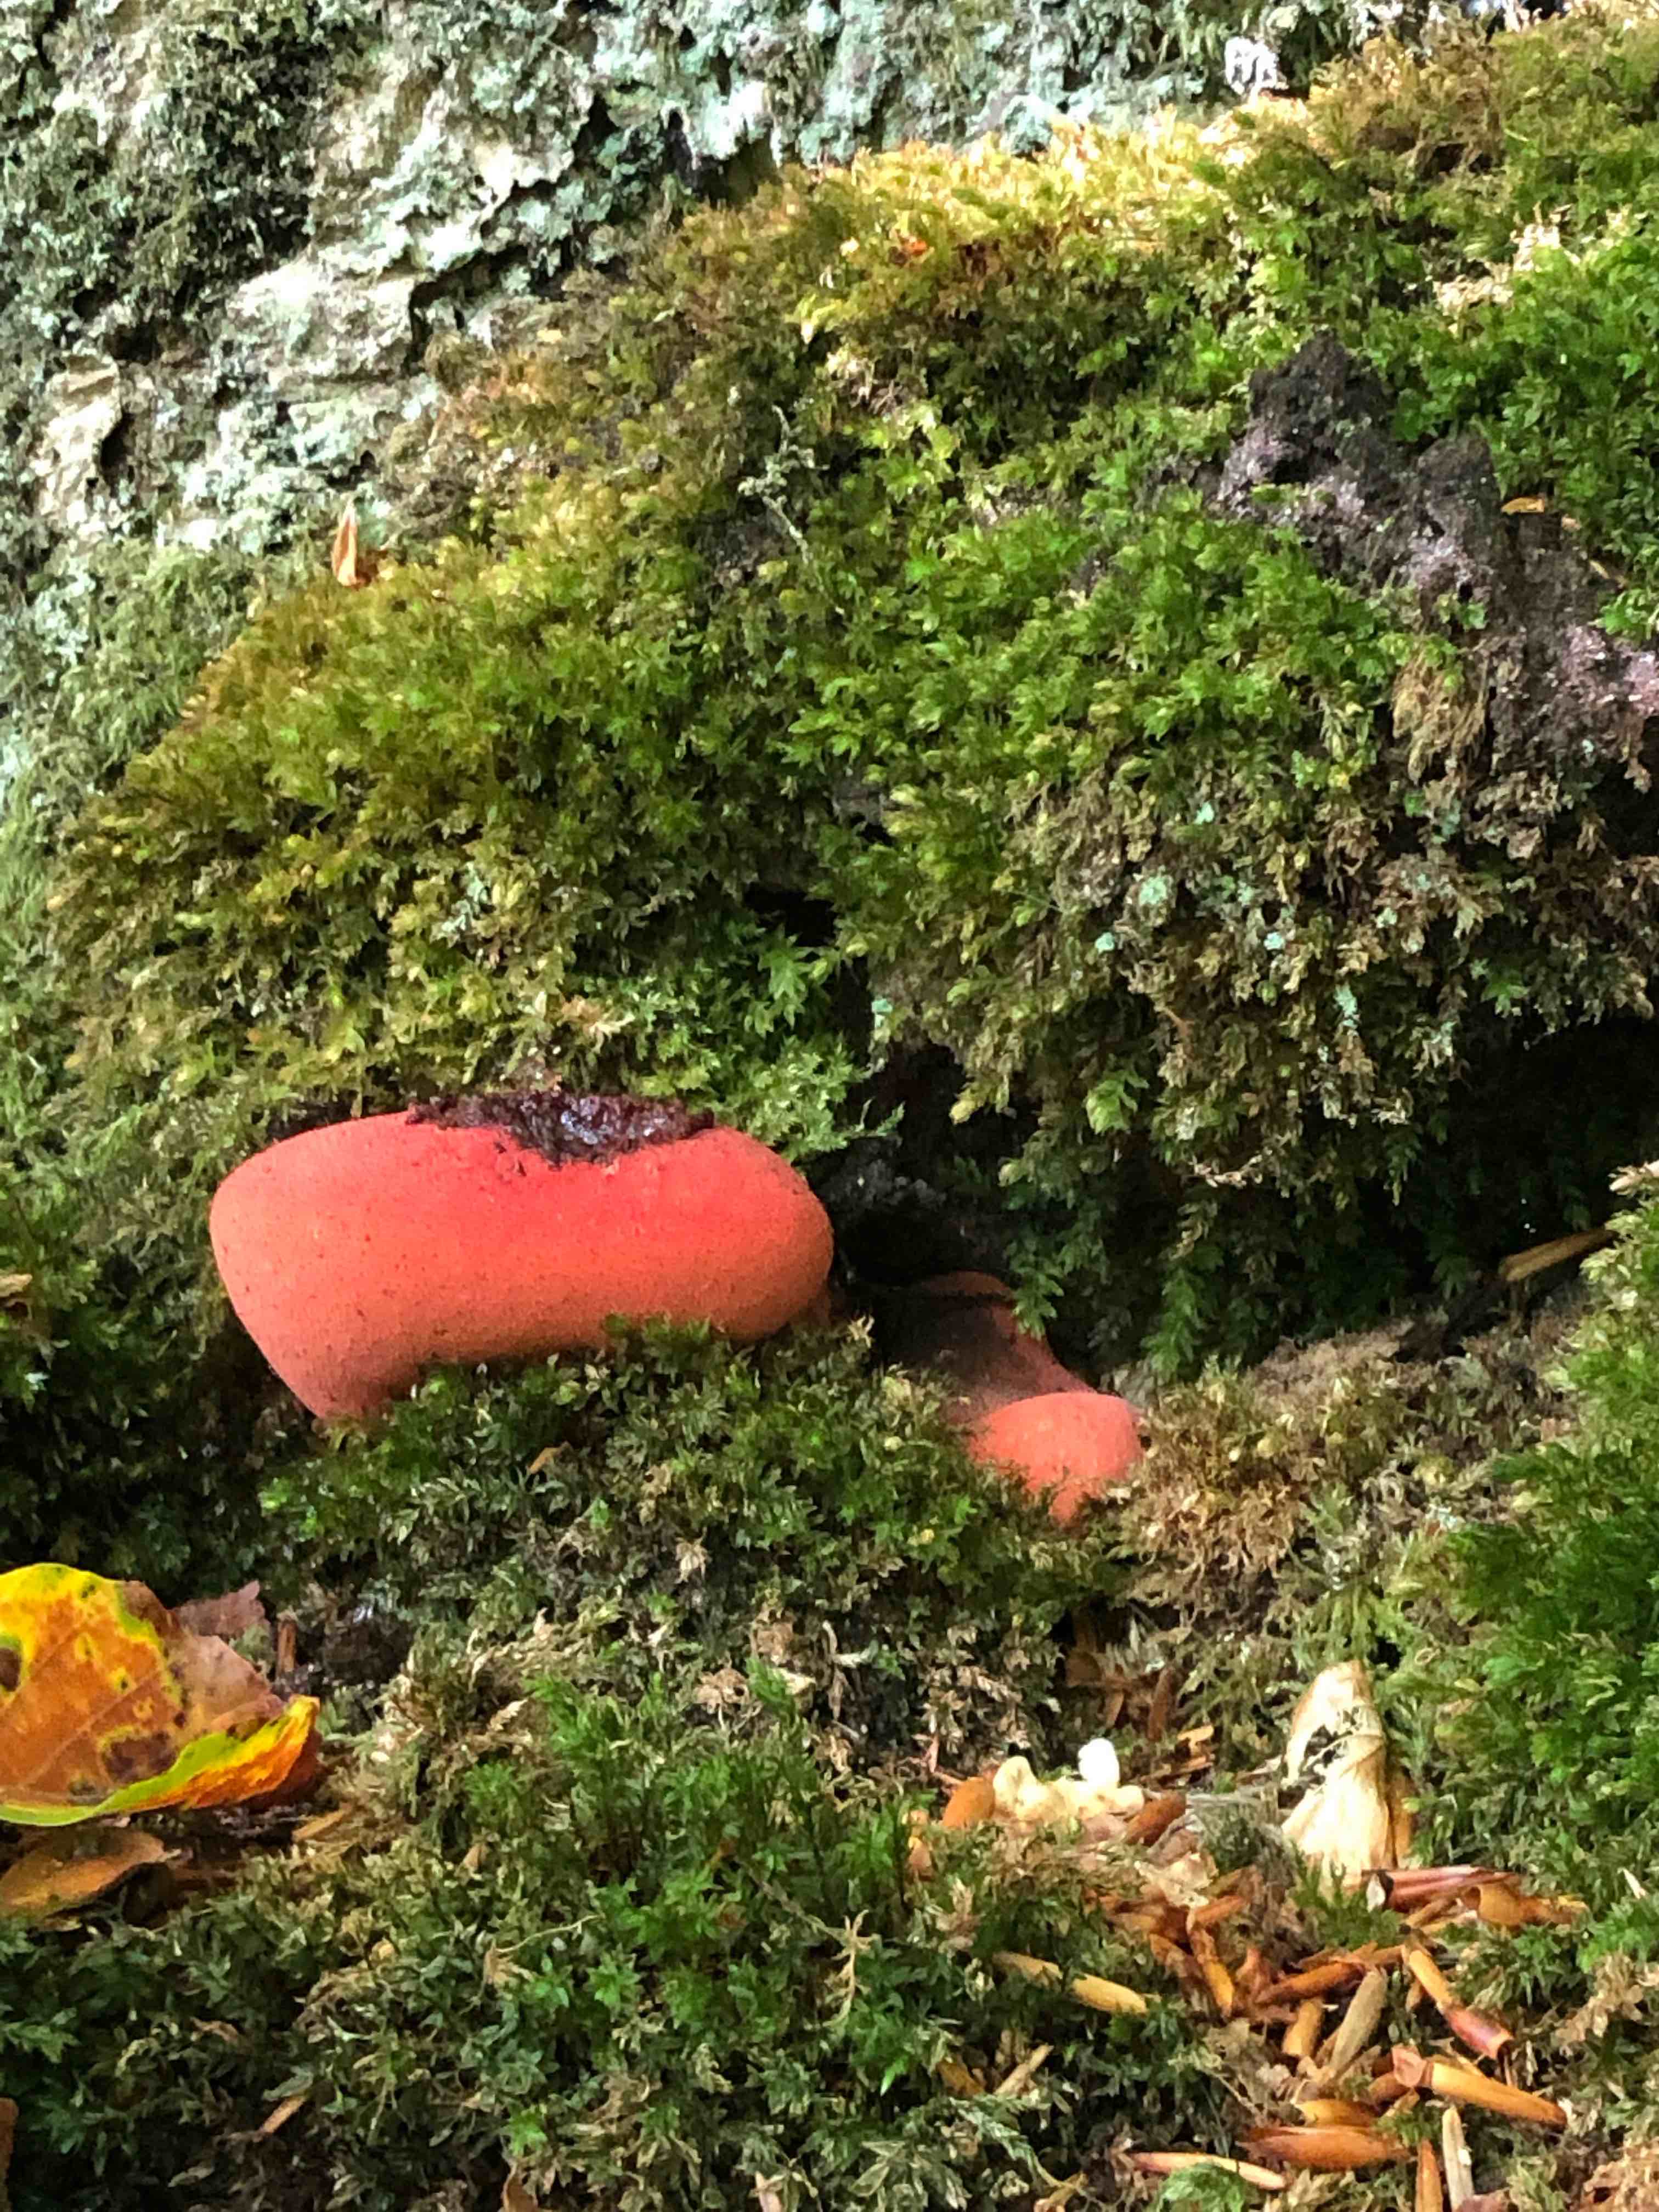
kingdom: Fungi
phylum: Basidiomycota
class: Agaricomycetes
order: Agaricales
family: Fistulinaceae
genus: Fistulina
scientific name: Fistulina hepatica
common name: oksetunge
